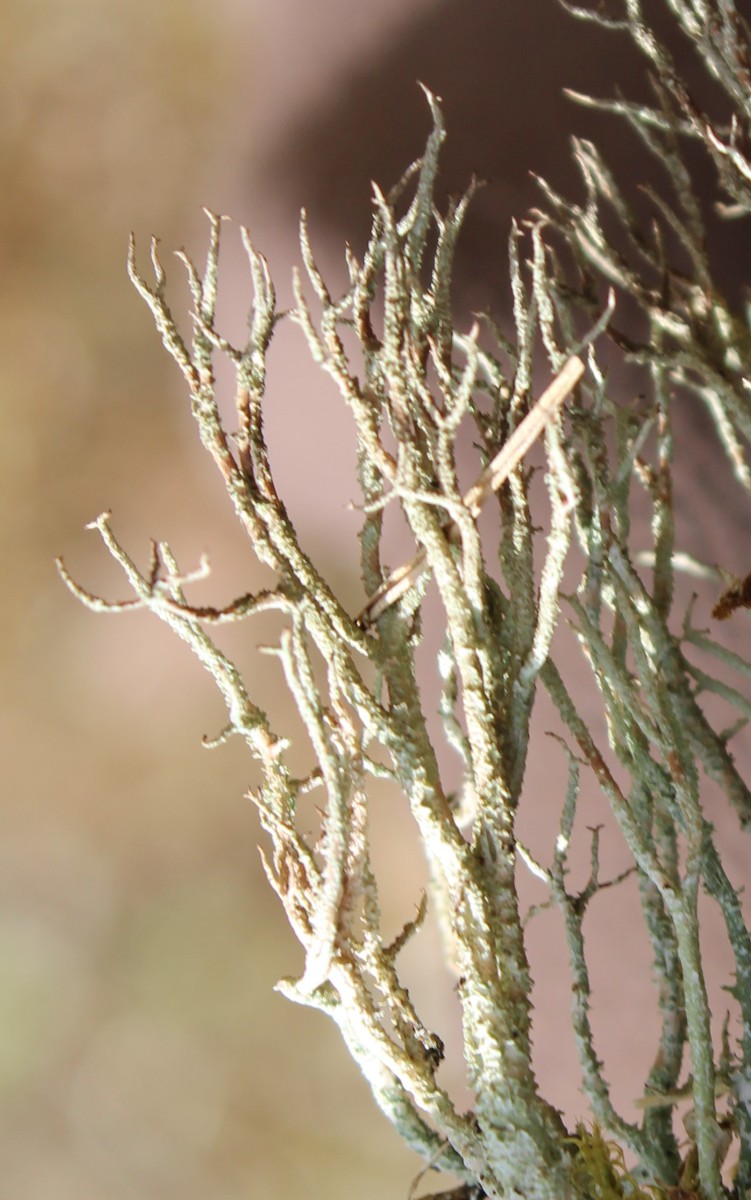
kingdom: Fungi
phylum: Ascomycota
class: Lecanoromycetes
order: Lecanorales
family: Cladoniaceae
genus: Cladonia
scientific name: Cladonia scabriuscula
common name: ru bægerlav
